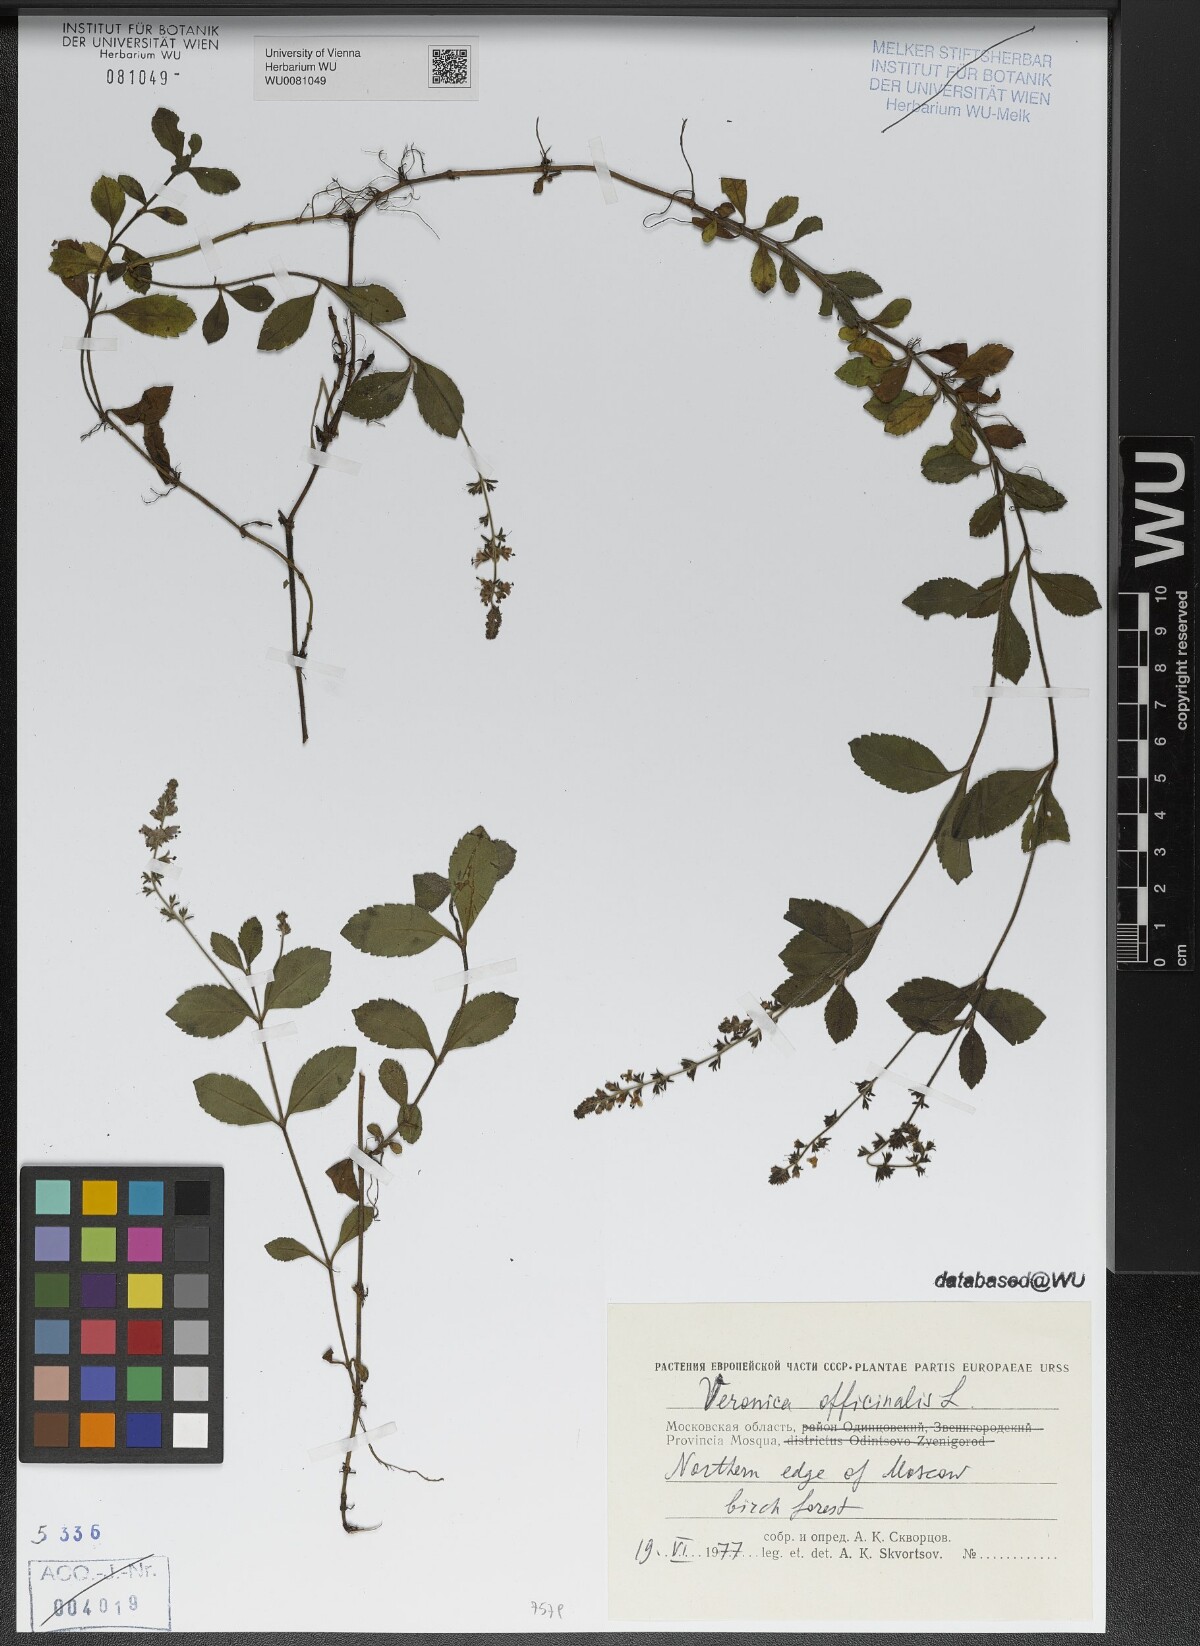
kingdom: Plantae
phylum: Tracheophyta
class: Magnoliopsida
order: Lamiales
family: Plantaginaceae
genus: Veronica
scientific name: Veronica officinalis
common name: Common speedwell
